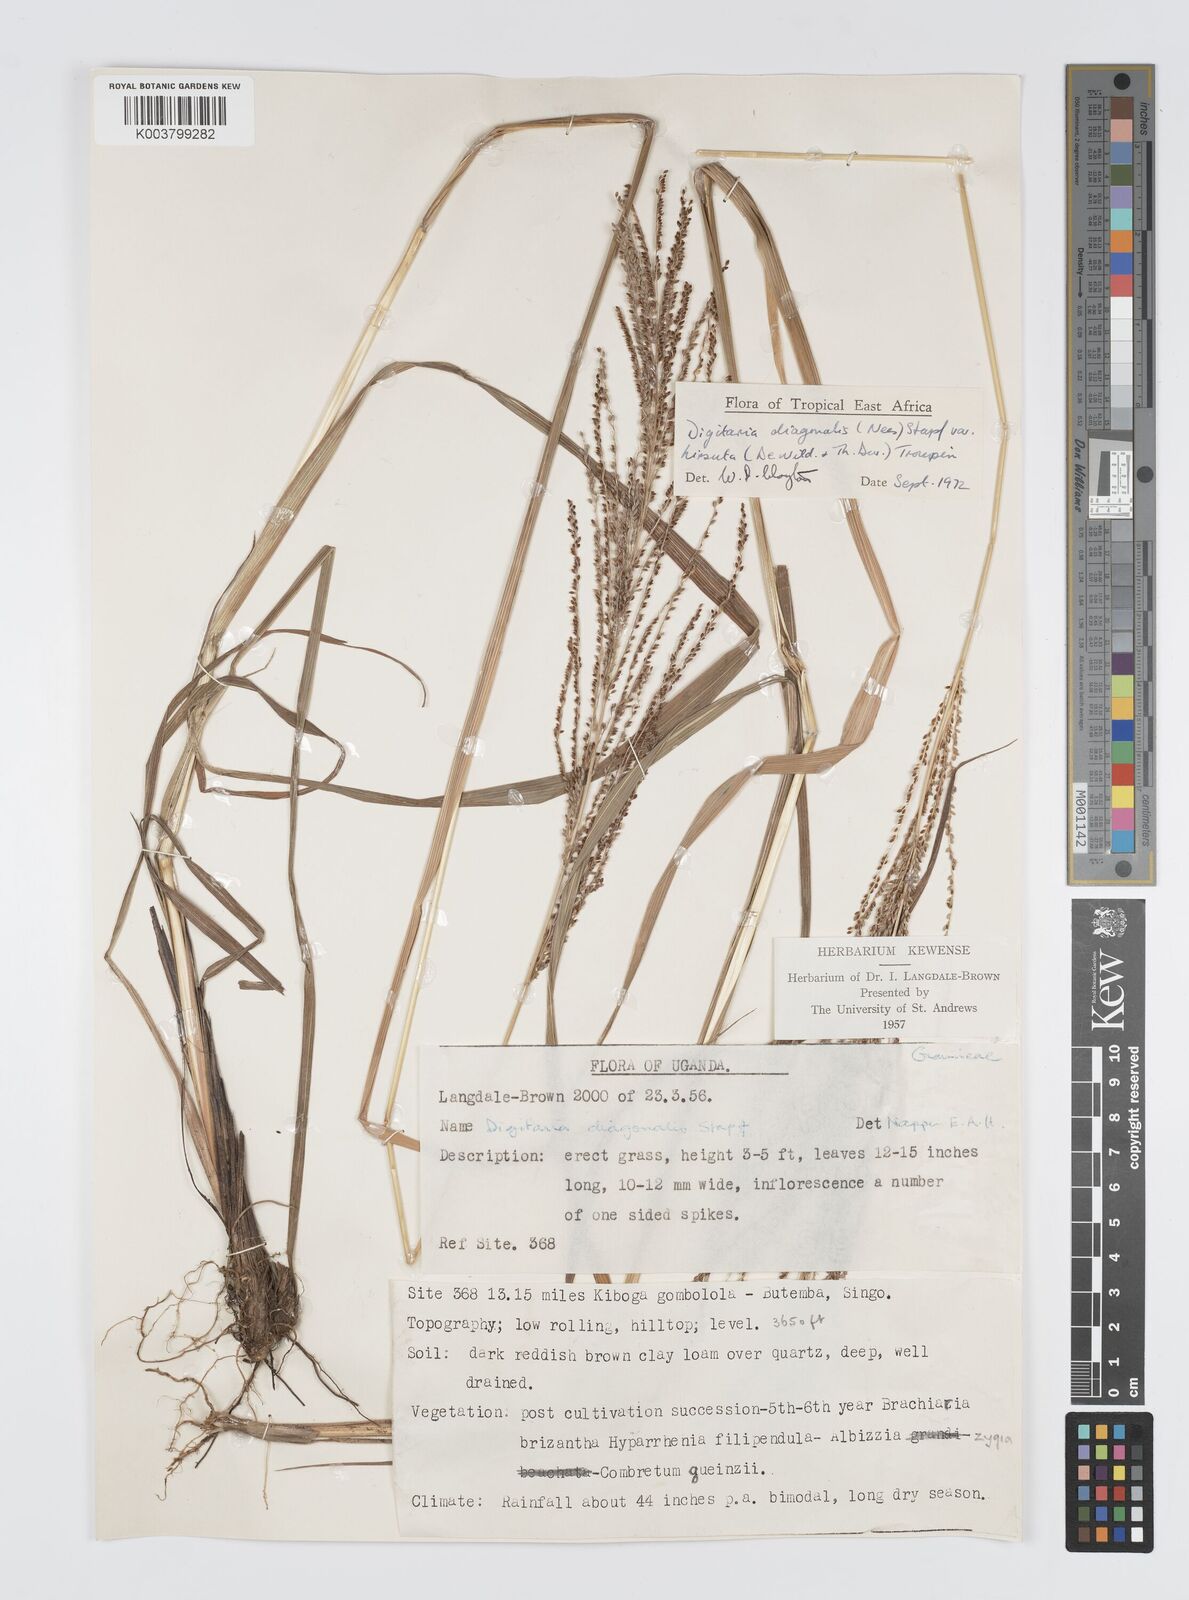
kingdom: Plantae
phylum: Tracheophyta
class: Liliopsida
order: Poales
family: Poaceae
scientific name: Poaceae
